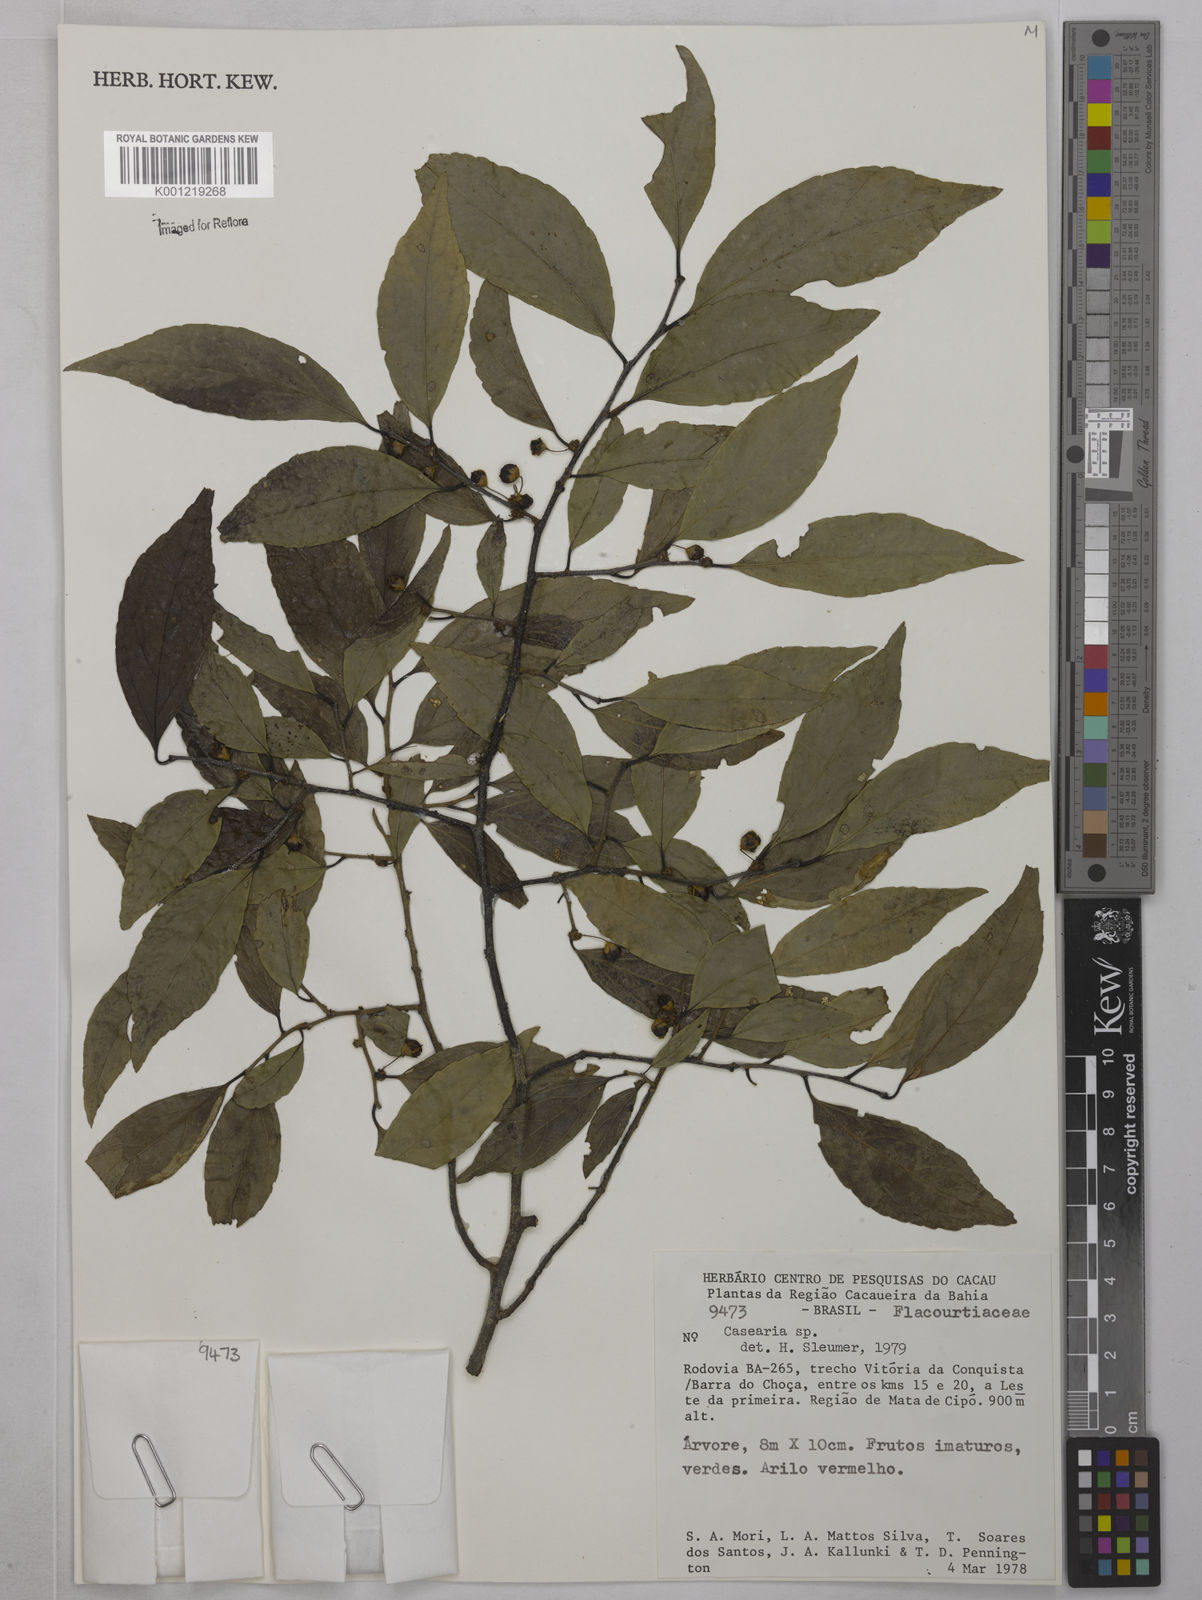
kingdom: Plantae
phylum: Tracheophyta
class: Magnoliopsida
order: Malpighiales
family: Salicaceae
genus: Casearia
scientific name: Casearia
